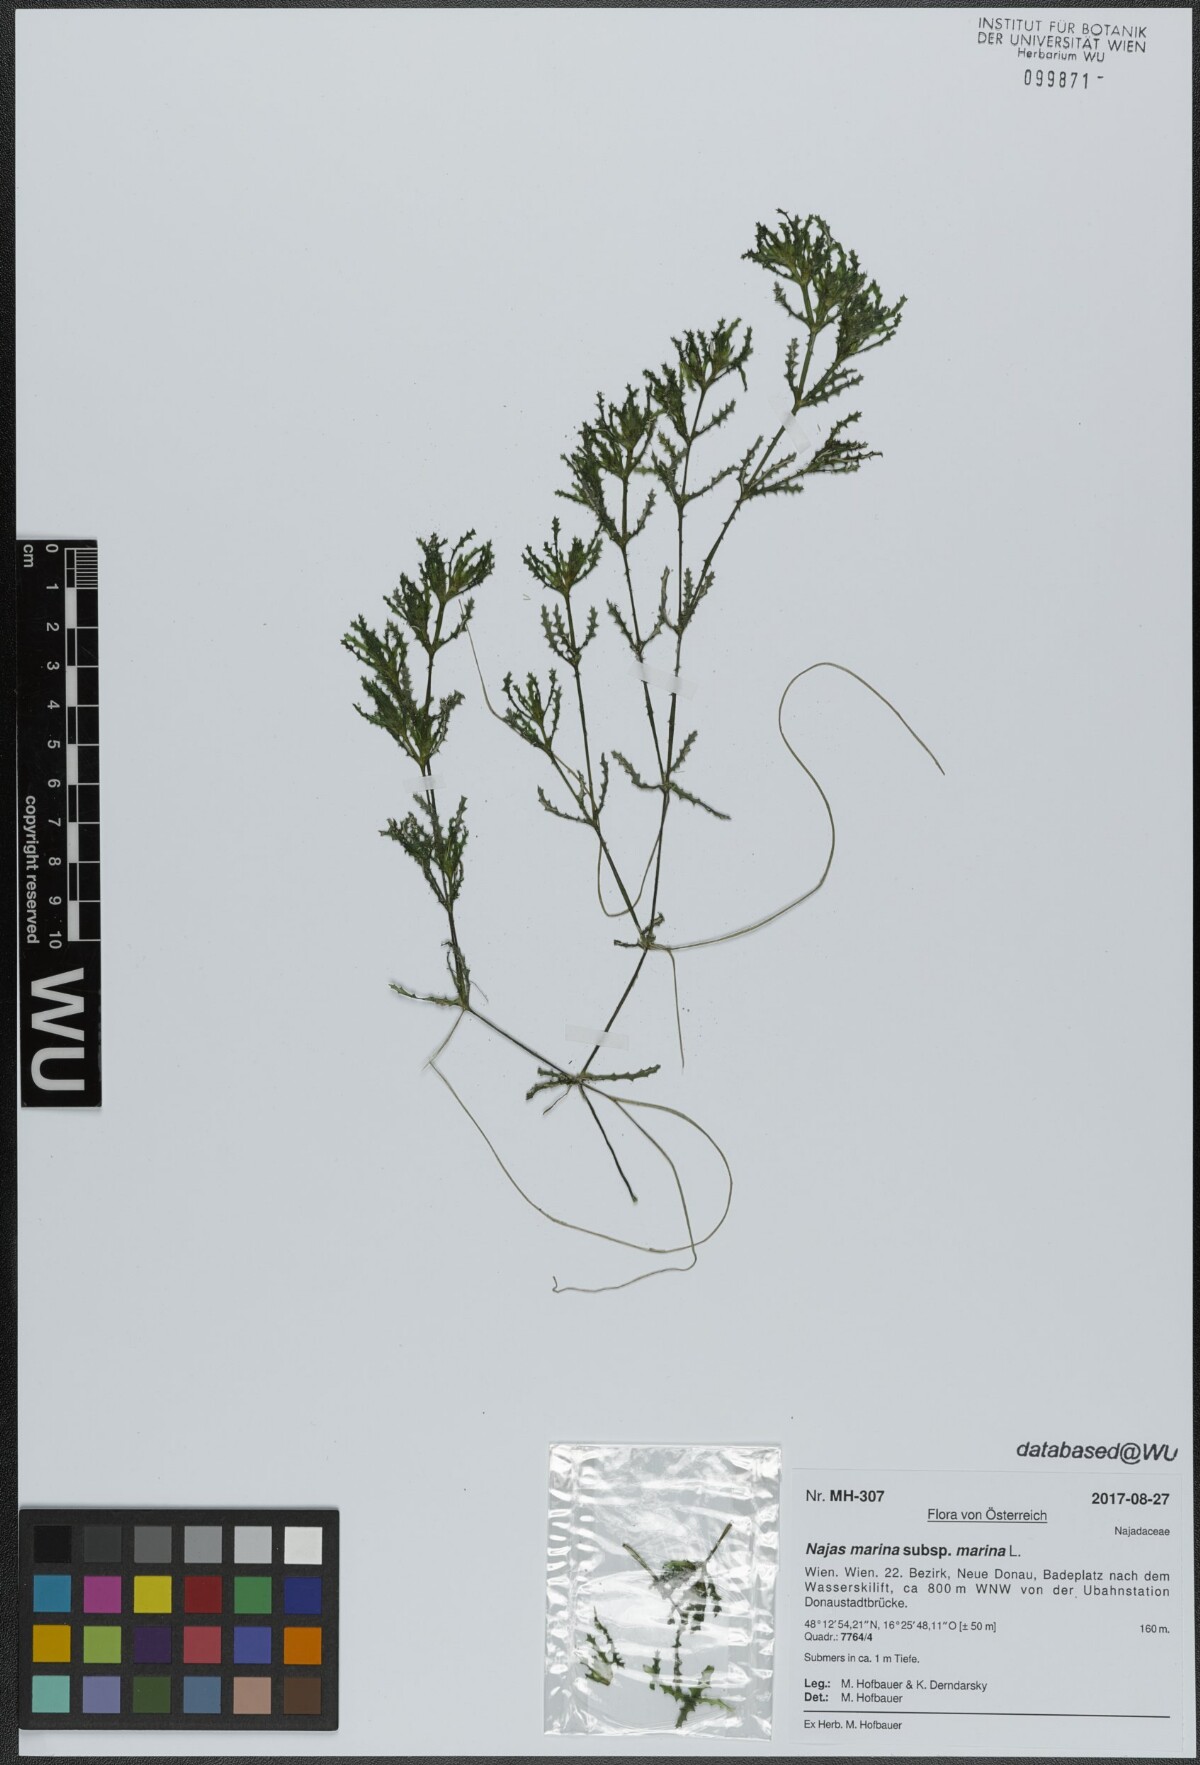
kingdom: Plantae
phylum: Tracheophyta
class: Liliopsida
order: Alismatales
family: Hydrocharitaceae
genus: Najas
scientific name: Najas marina
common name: Holly-leaved naiad
